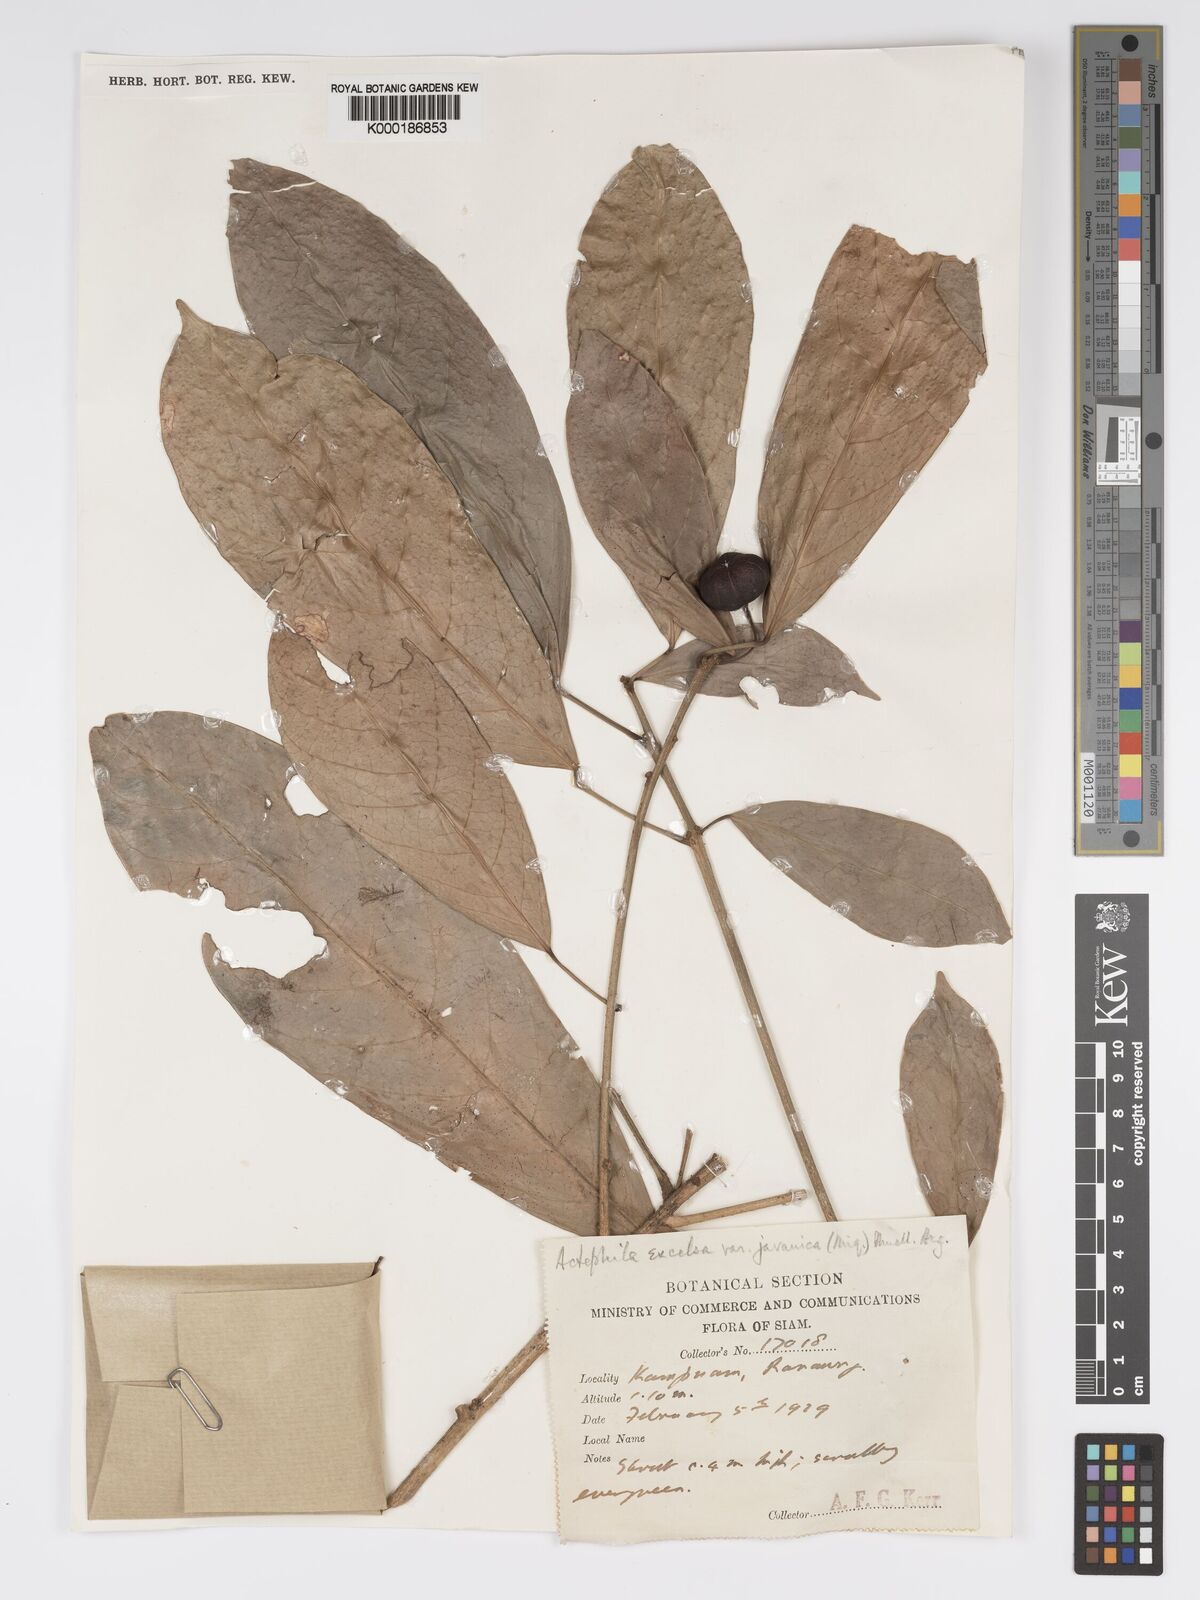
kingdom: Plantae
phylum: Tracheophyta
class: Magnoliopsida
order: Malpighiales
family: Phyllanthaceae
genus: Actephila
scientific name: Actephila
